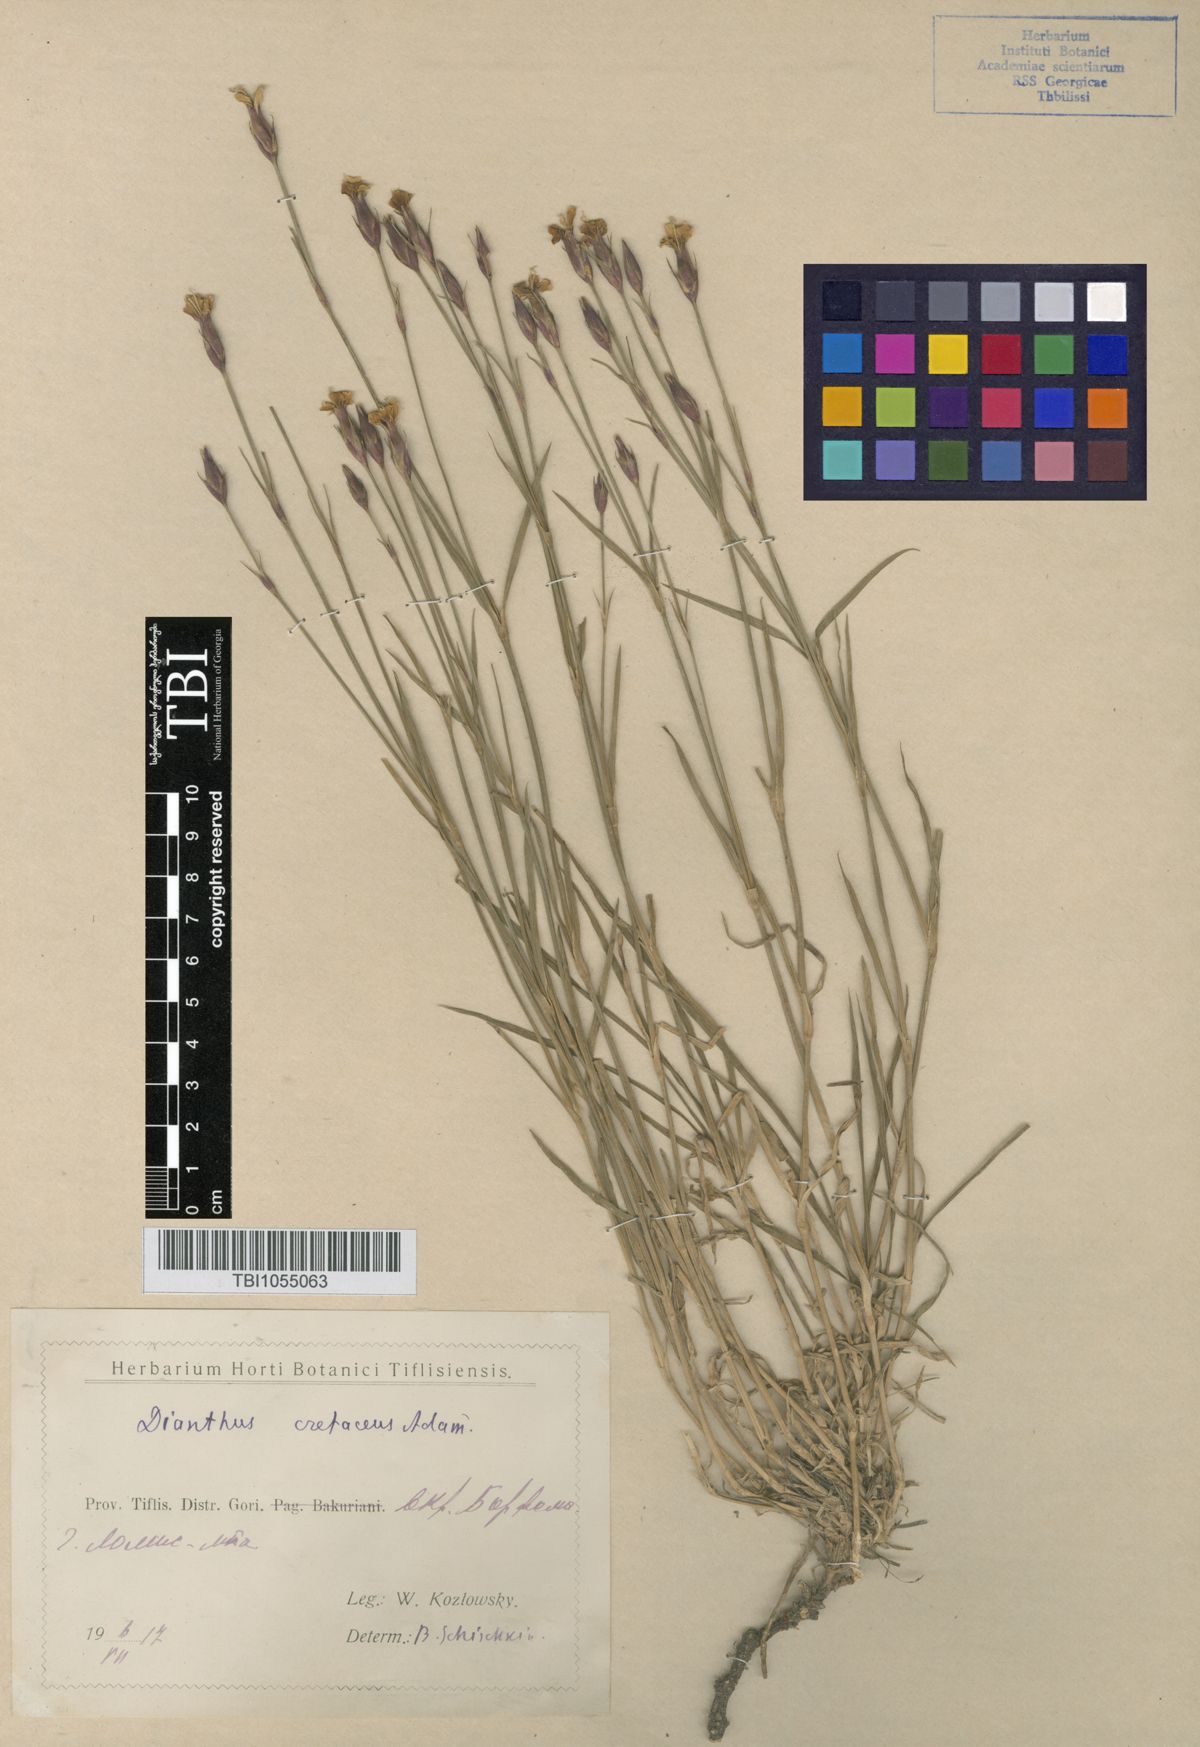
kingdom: Plantae
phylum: Tracheophyta
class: Magnoliopsida
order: Caryophyllales
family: Caryophyllaceae
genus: Dianthus
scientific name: Dianthus cretaceus
